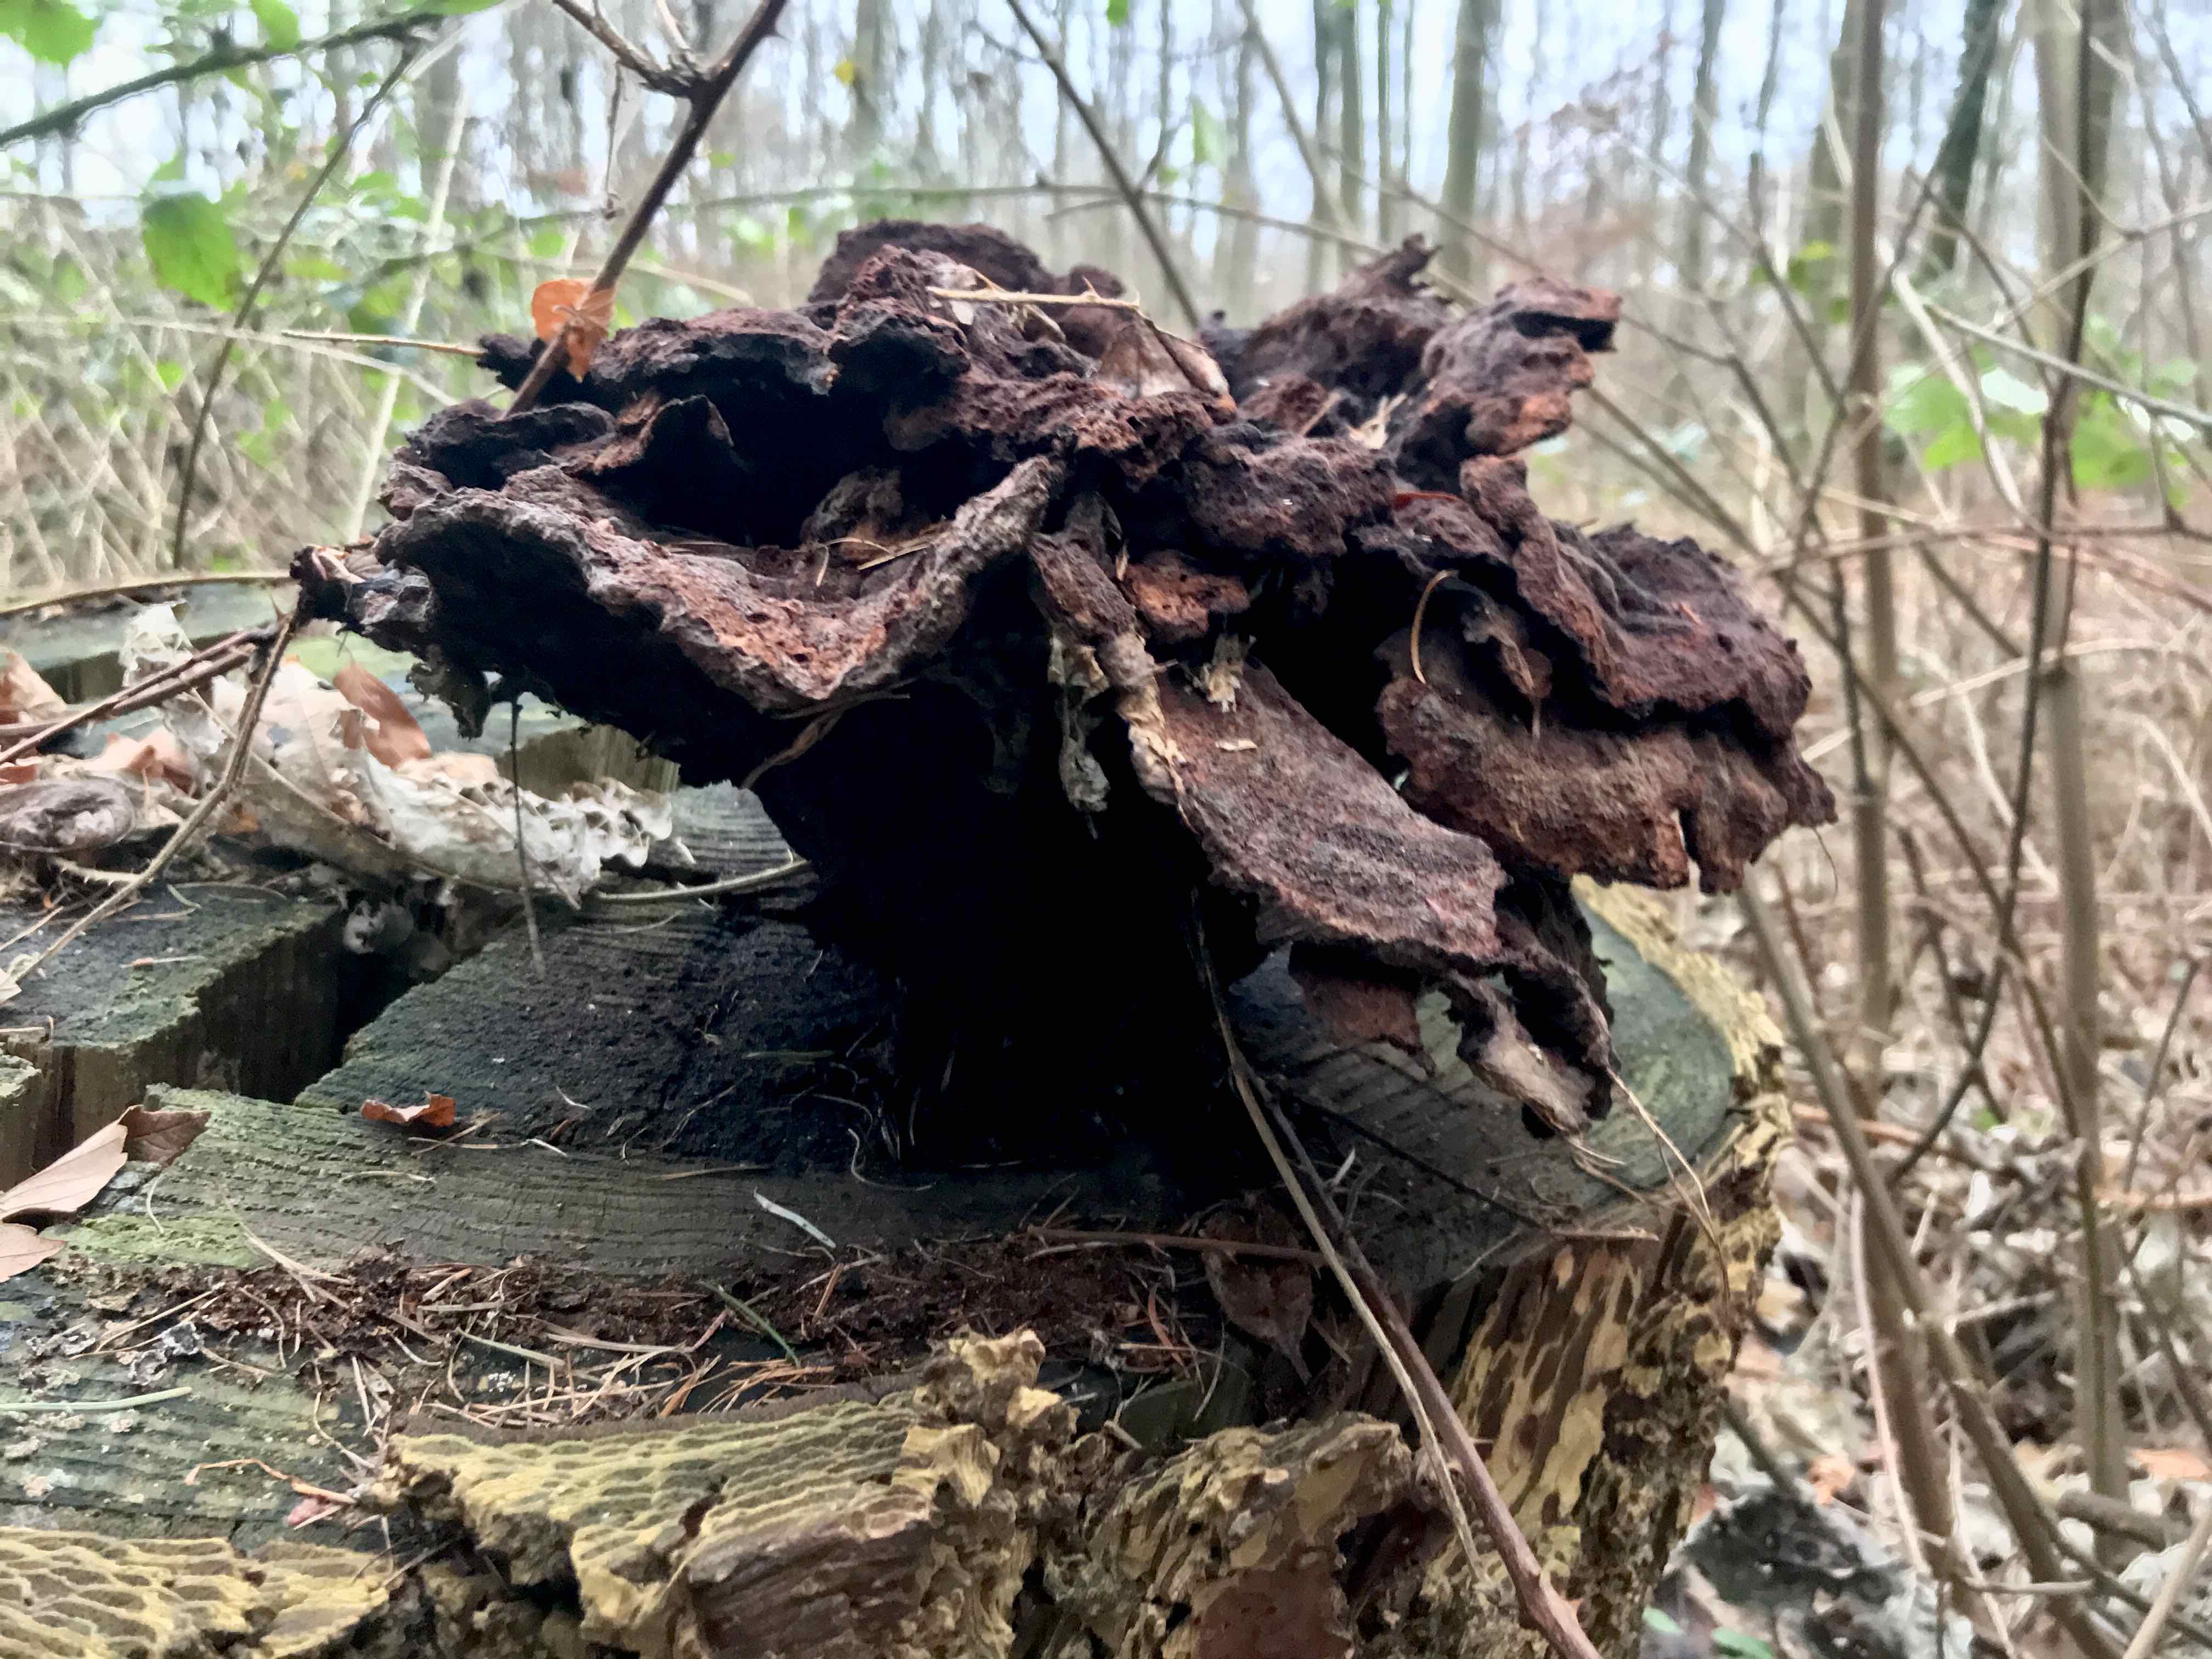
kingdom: Fungi
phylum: Basidiomycota
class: Agaricomycetes
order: Polyporales
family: Laetiporaceae
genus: Phaeolus
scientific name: Phaeolus schweinitzii
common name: brunporesvamp
